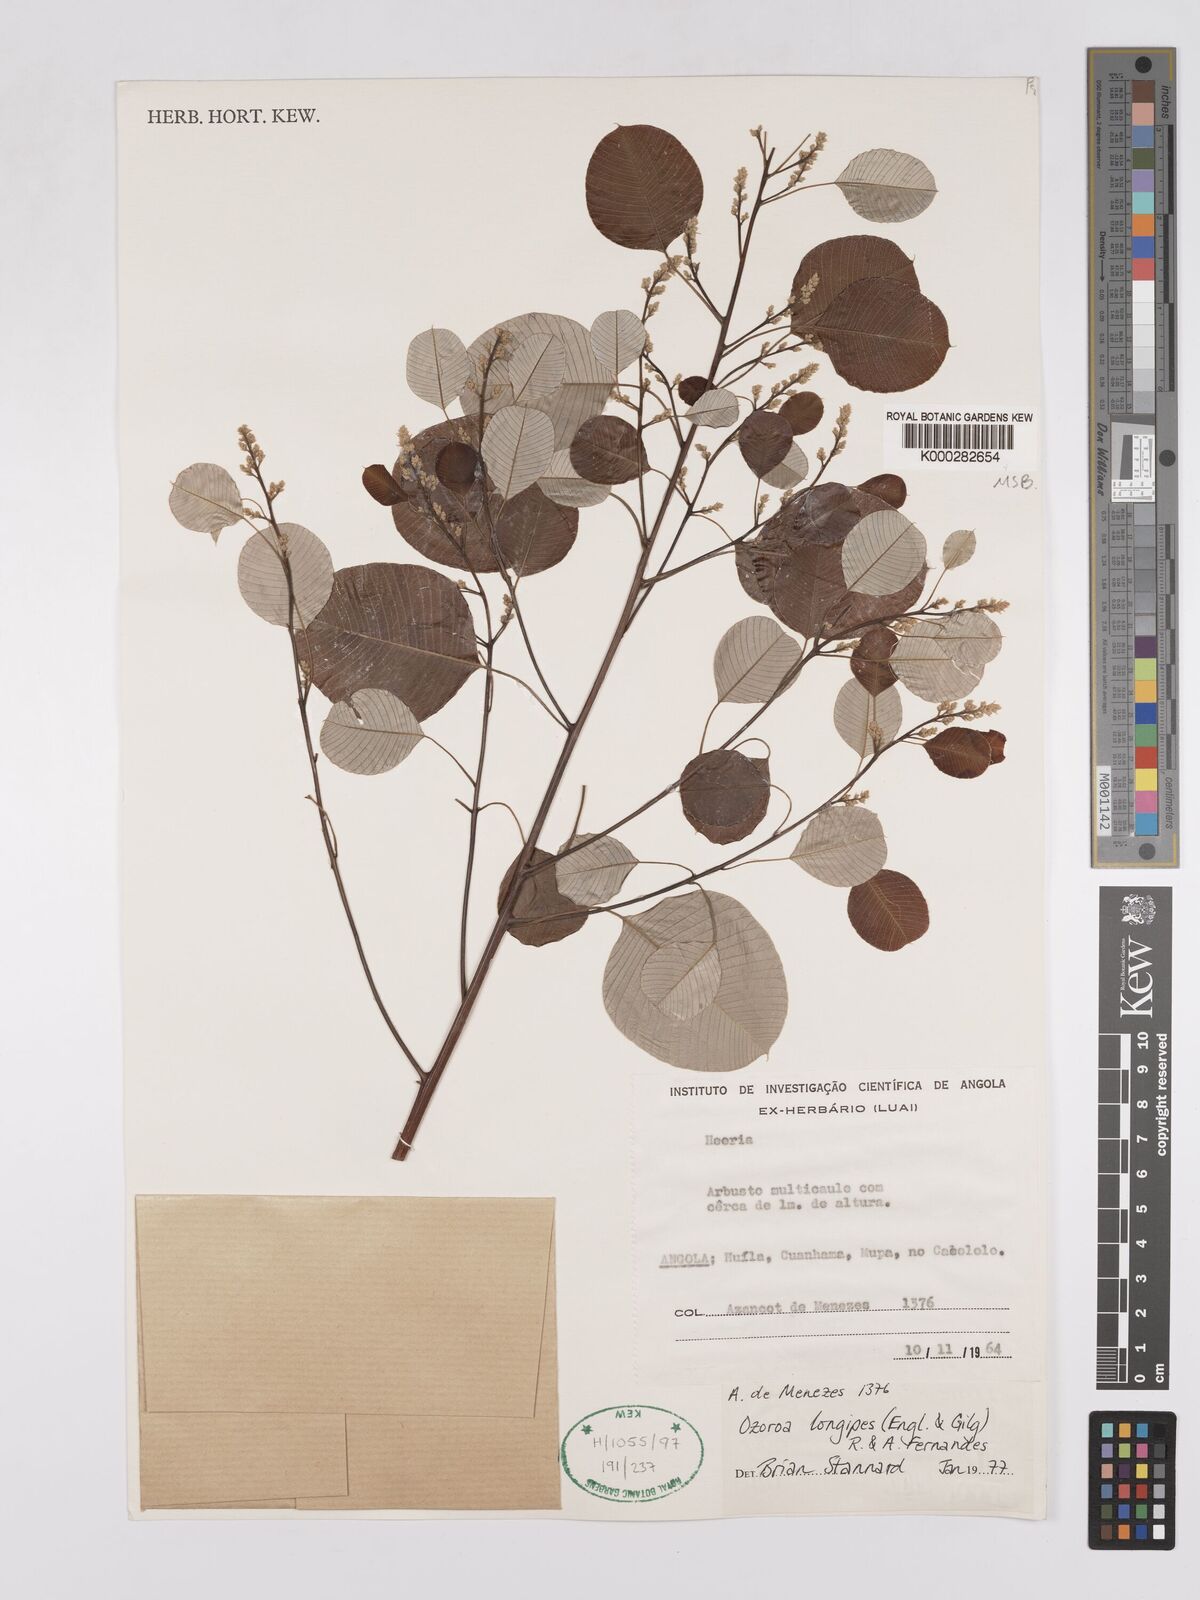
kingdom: Plantae
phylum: Tracheophyta
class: Magnoliopsida
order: Sapindales
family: Anacardiaceae
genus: Ozoroa
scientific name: Ozoroa longipes
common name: Round-leaved resin tree
